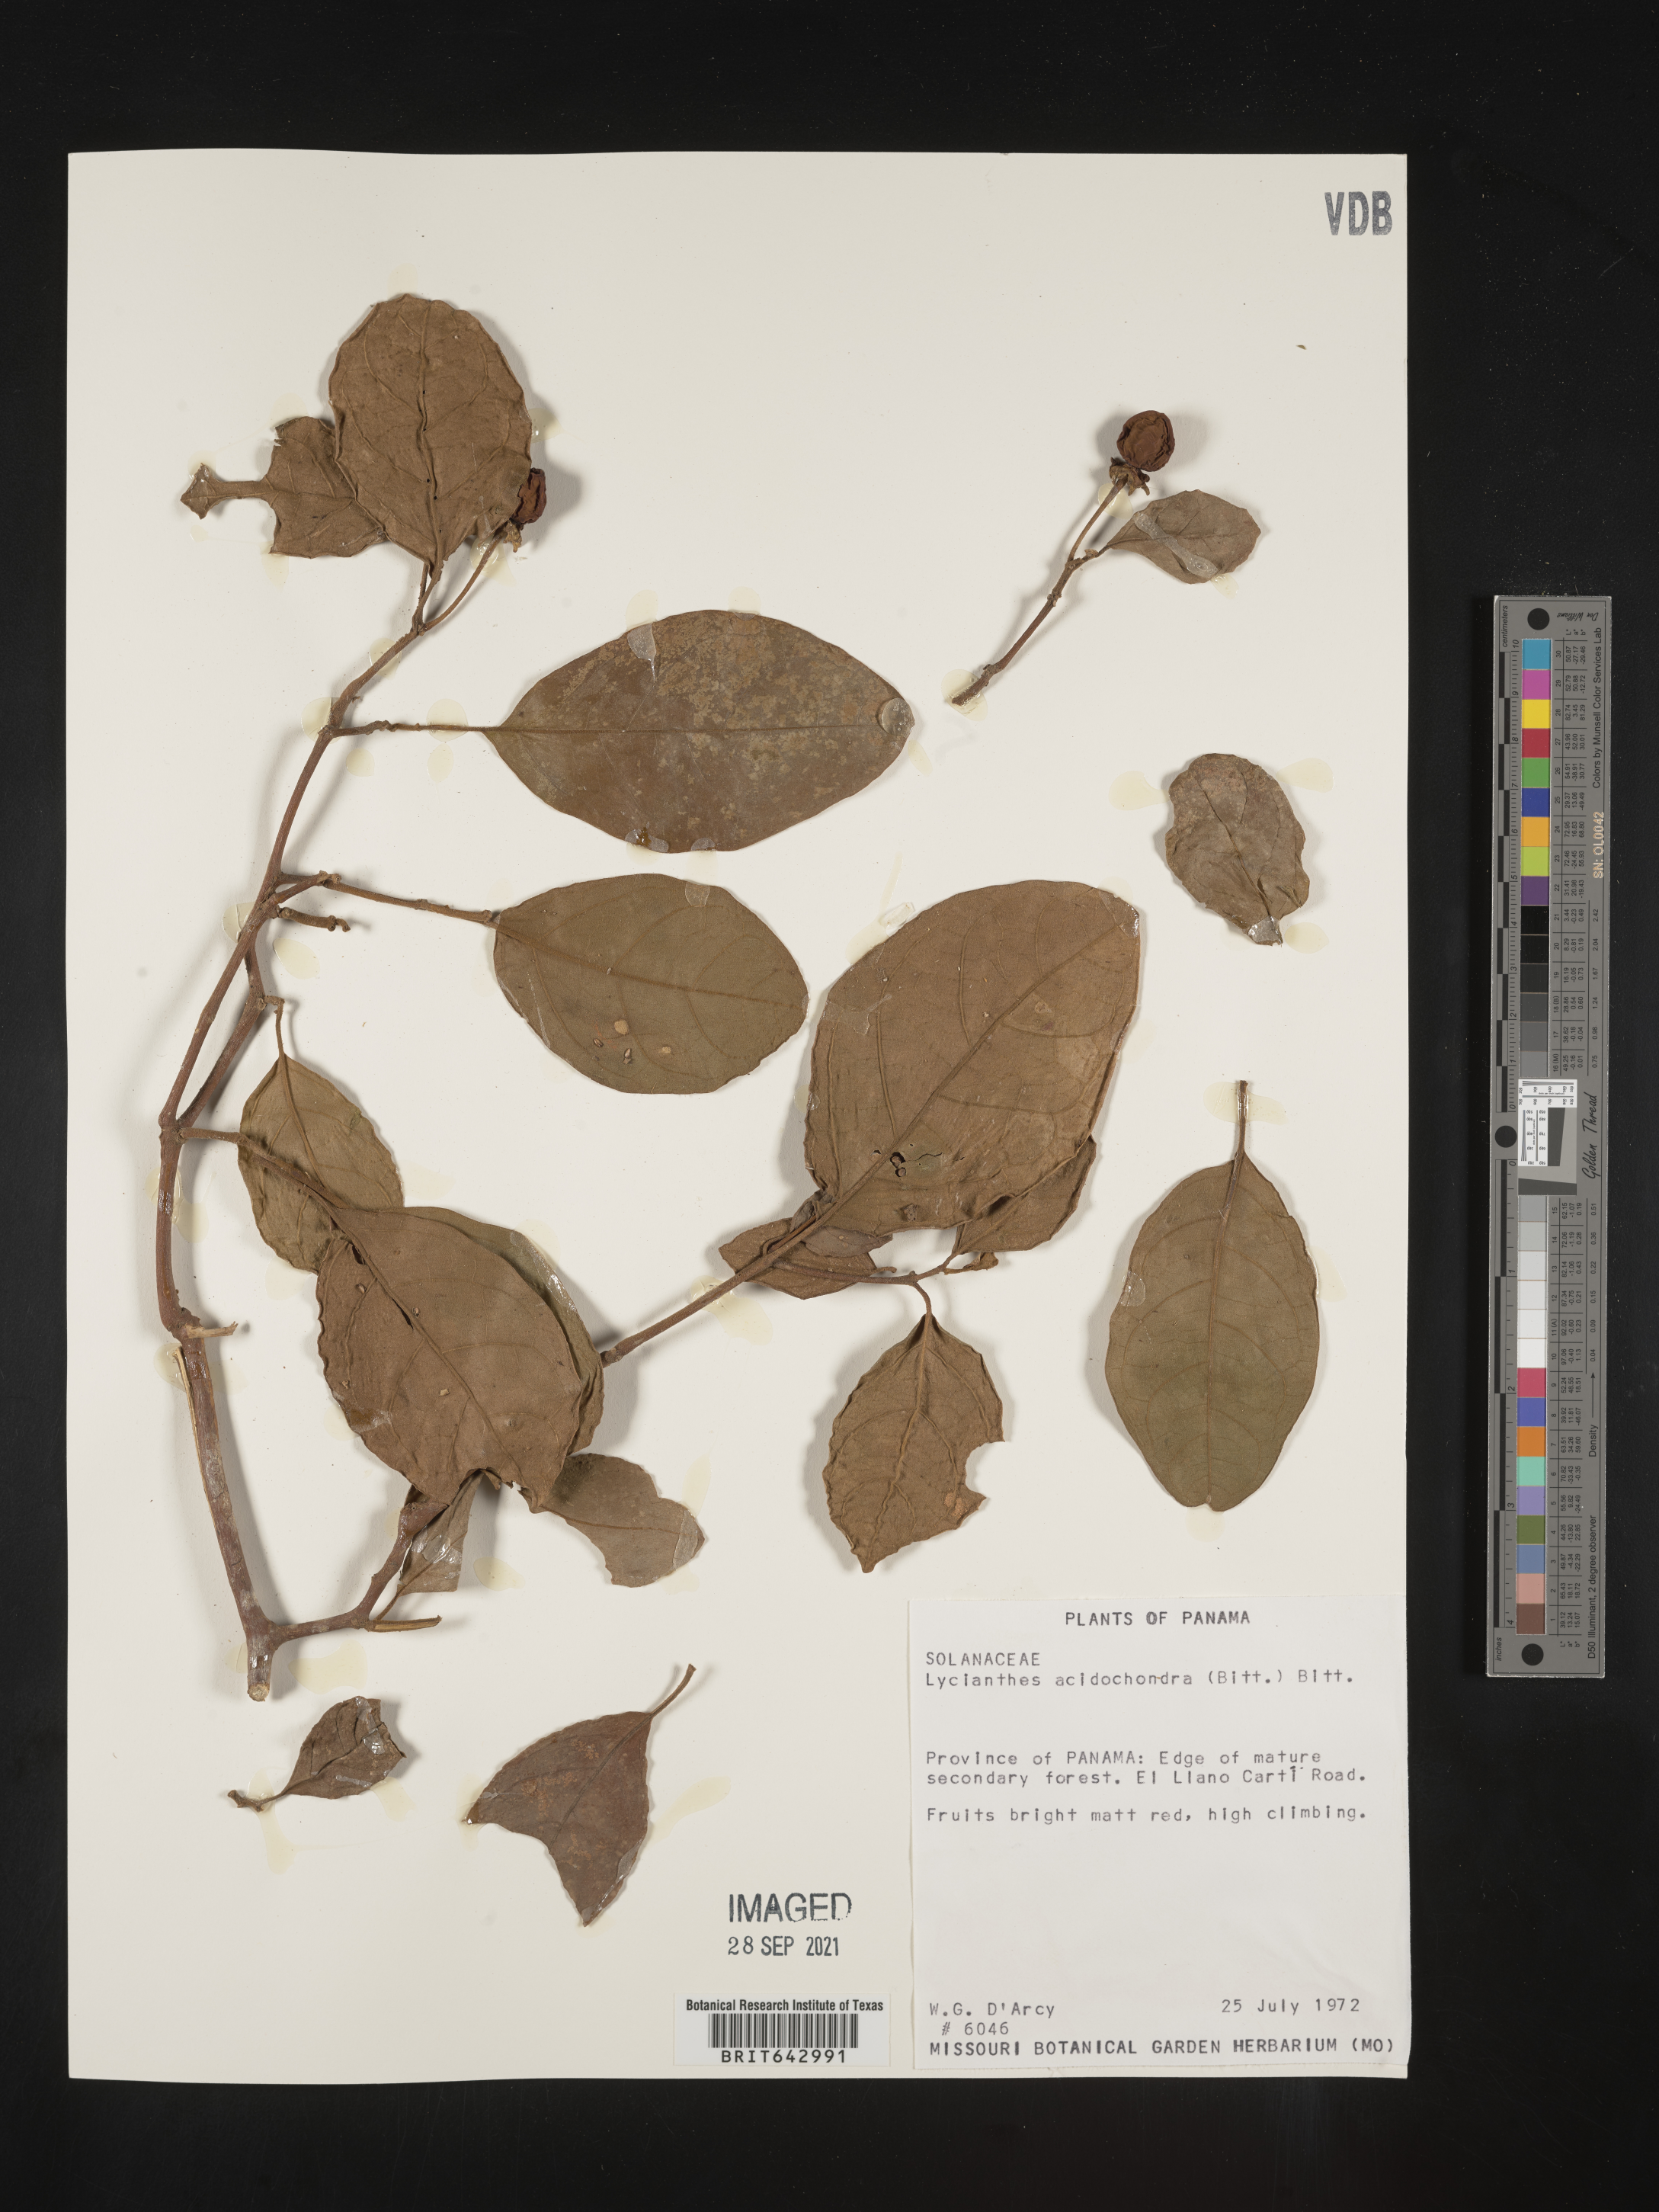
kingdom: Plantae
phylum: Tracheophyta
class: Magnoliopsida
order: Solanales
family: Solanaceae
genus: Lycianthes
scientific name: Lycianthes
